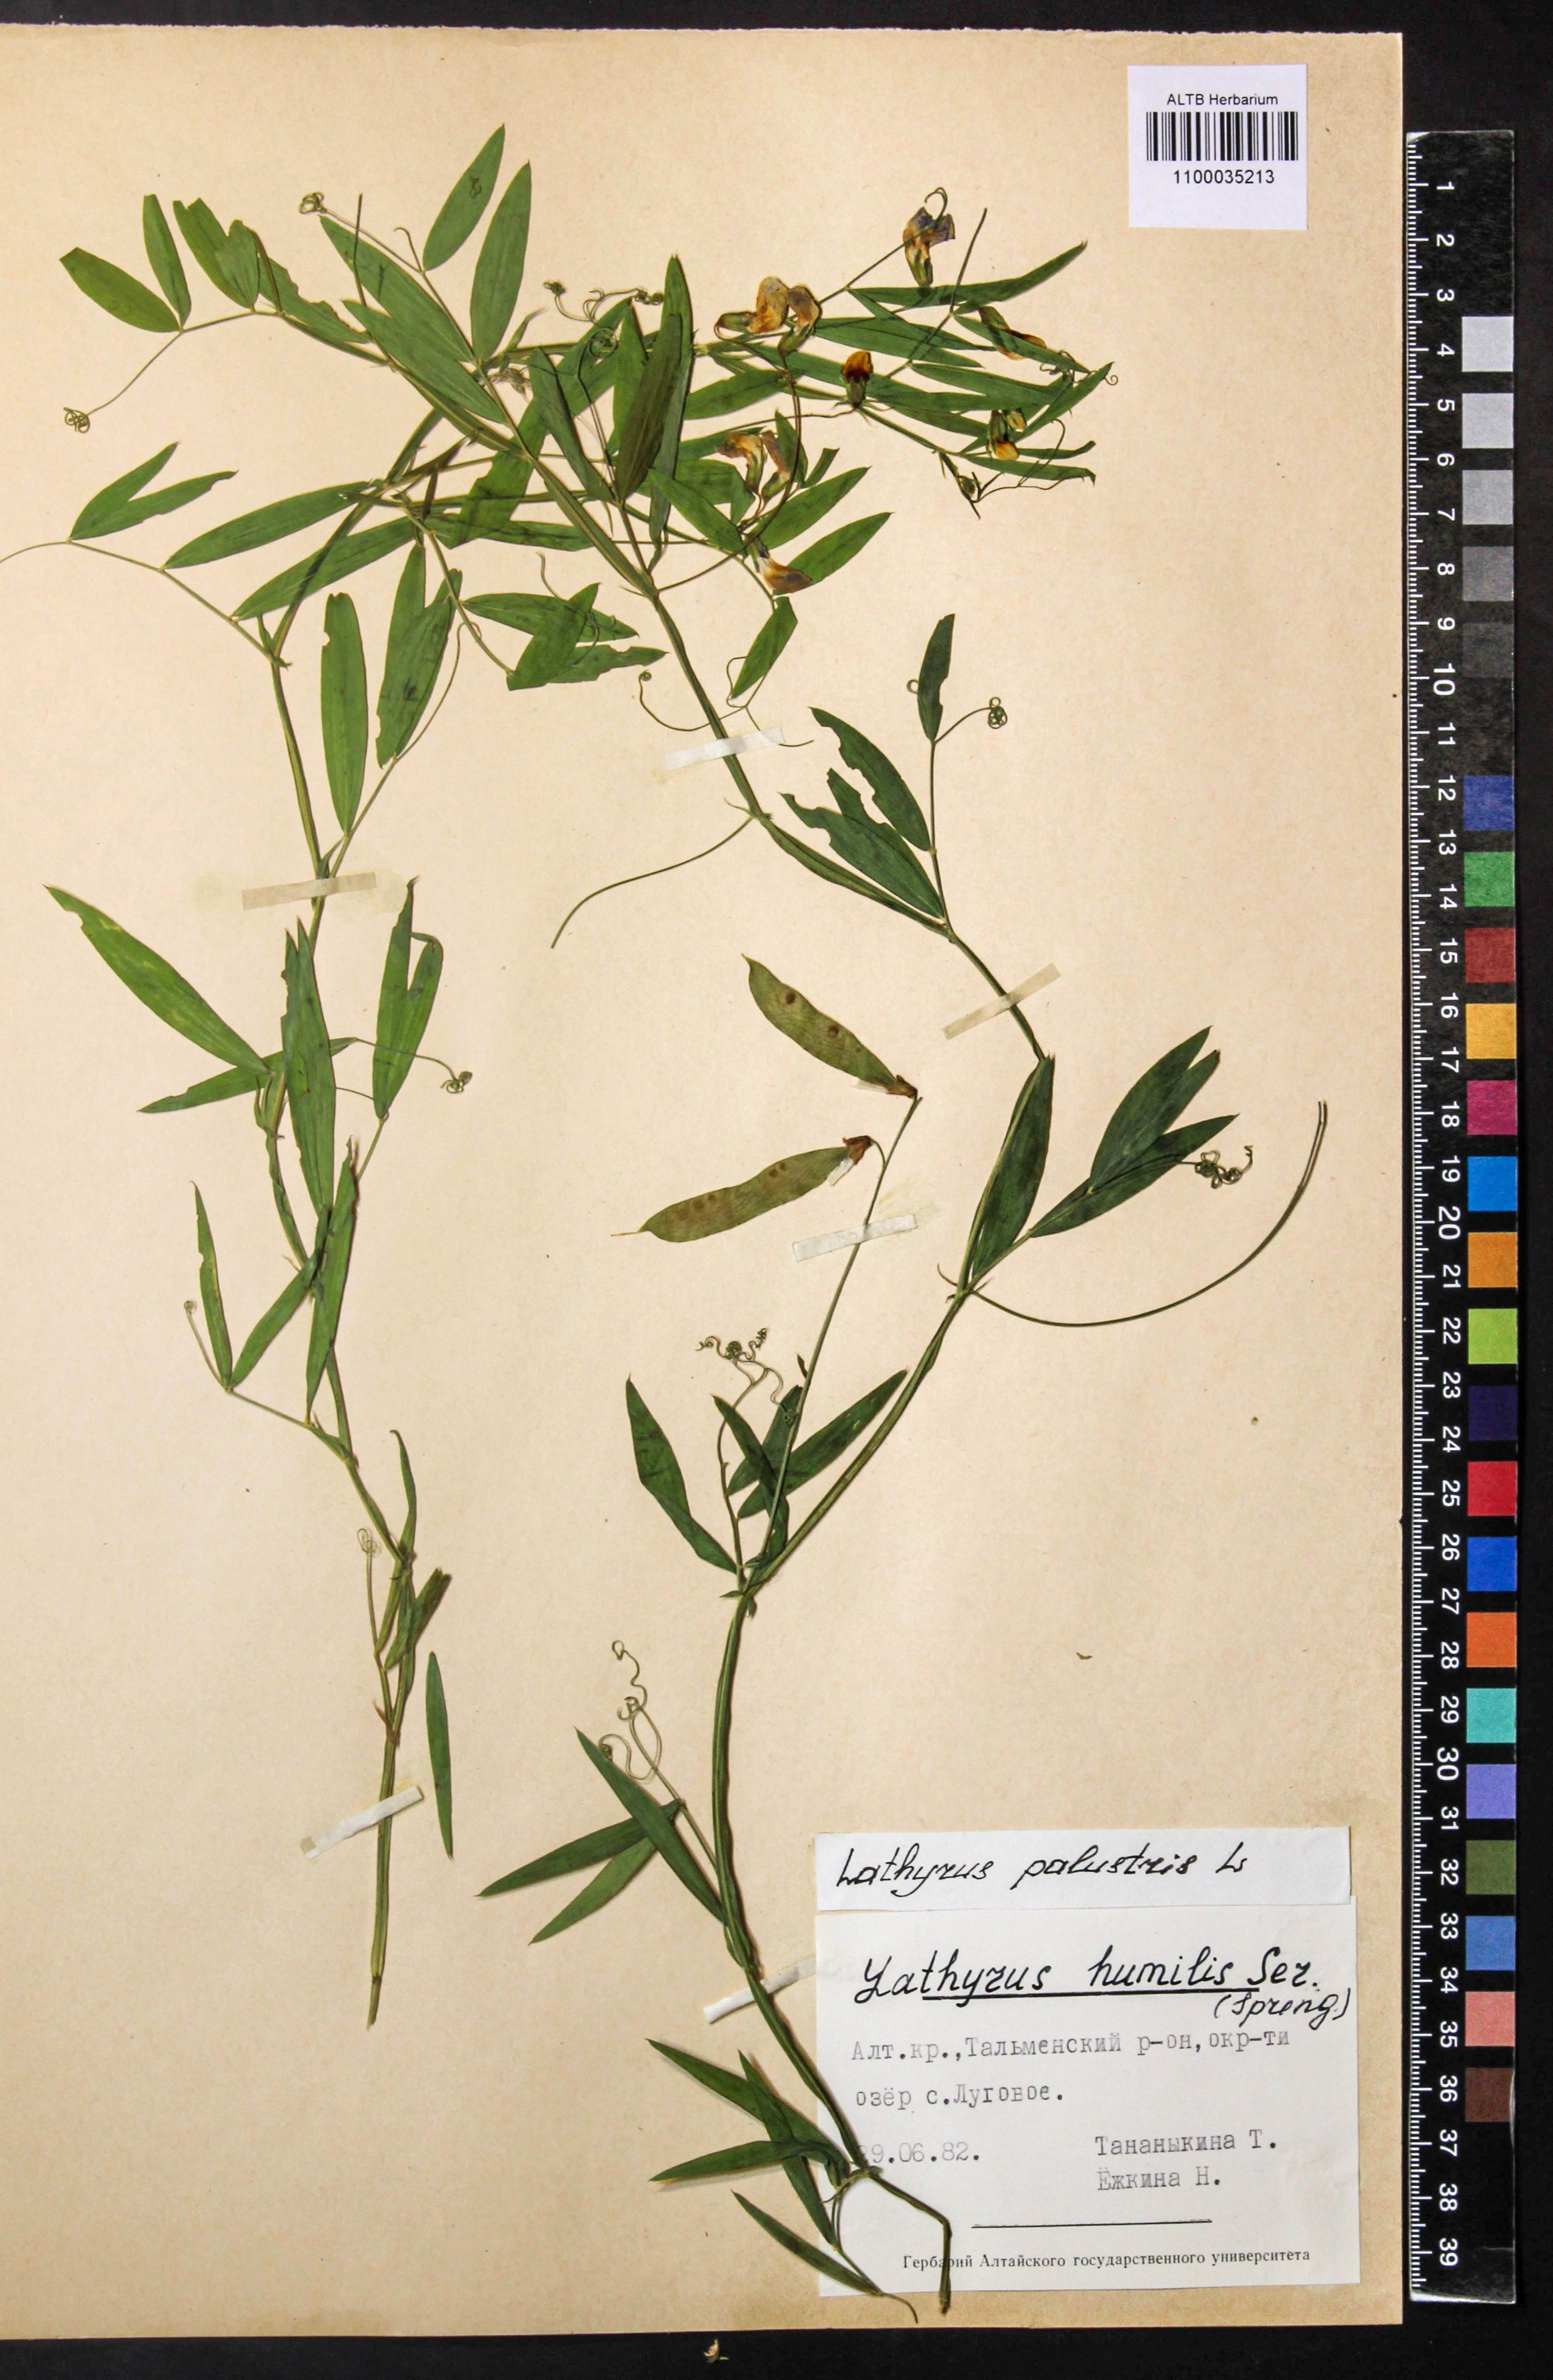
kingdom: Plantae
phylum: Tracheophyta
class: Magnoliopsida
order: Fabales
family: Fabaceae
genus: Lathyrus
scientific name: Lathyrus palustris
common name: Marsh pea
